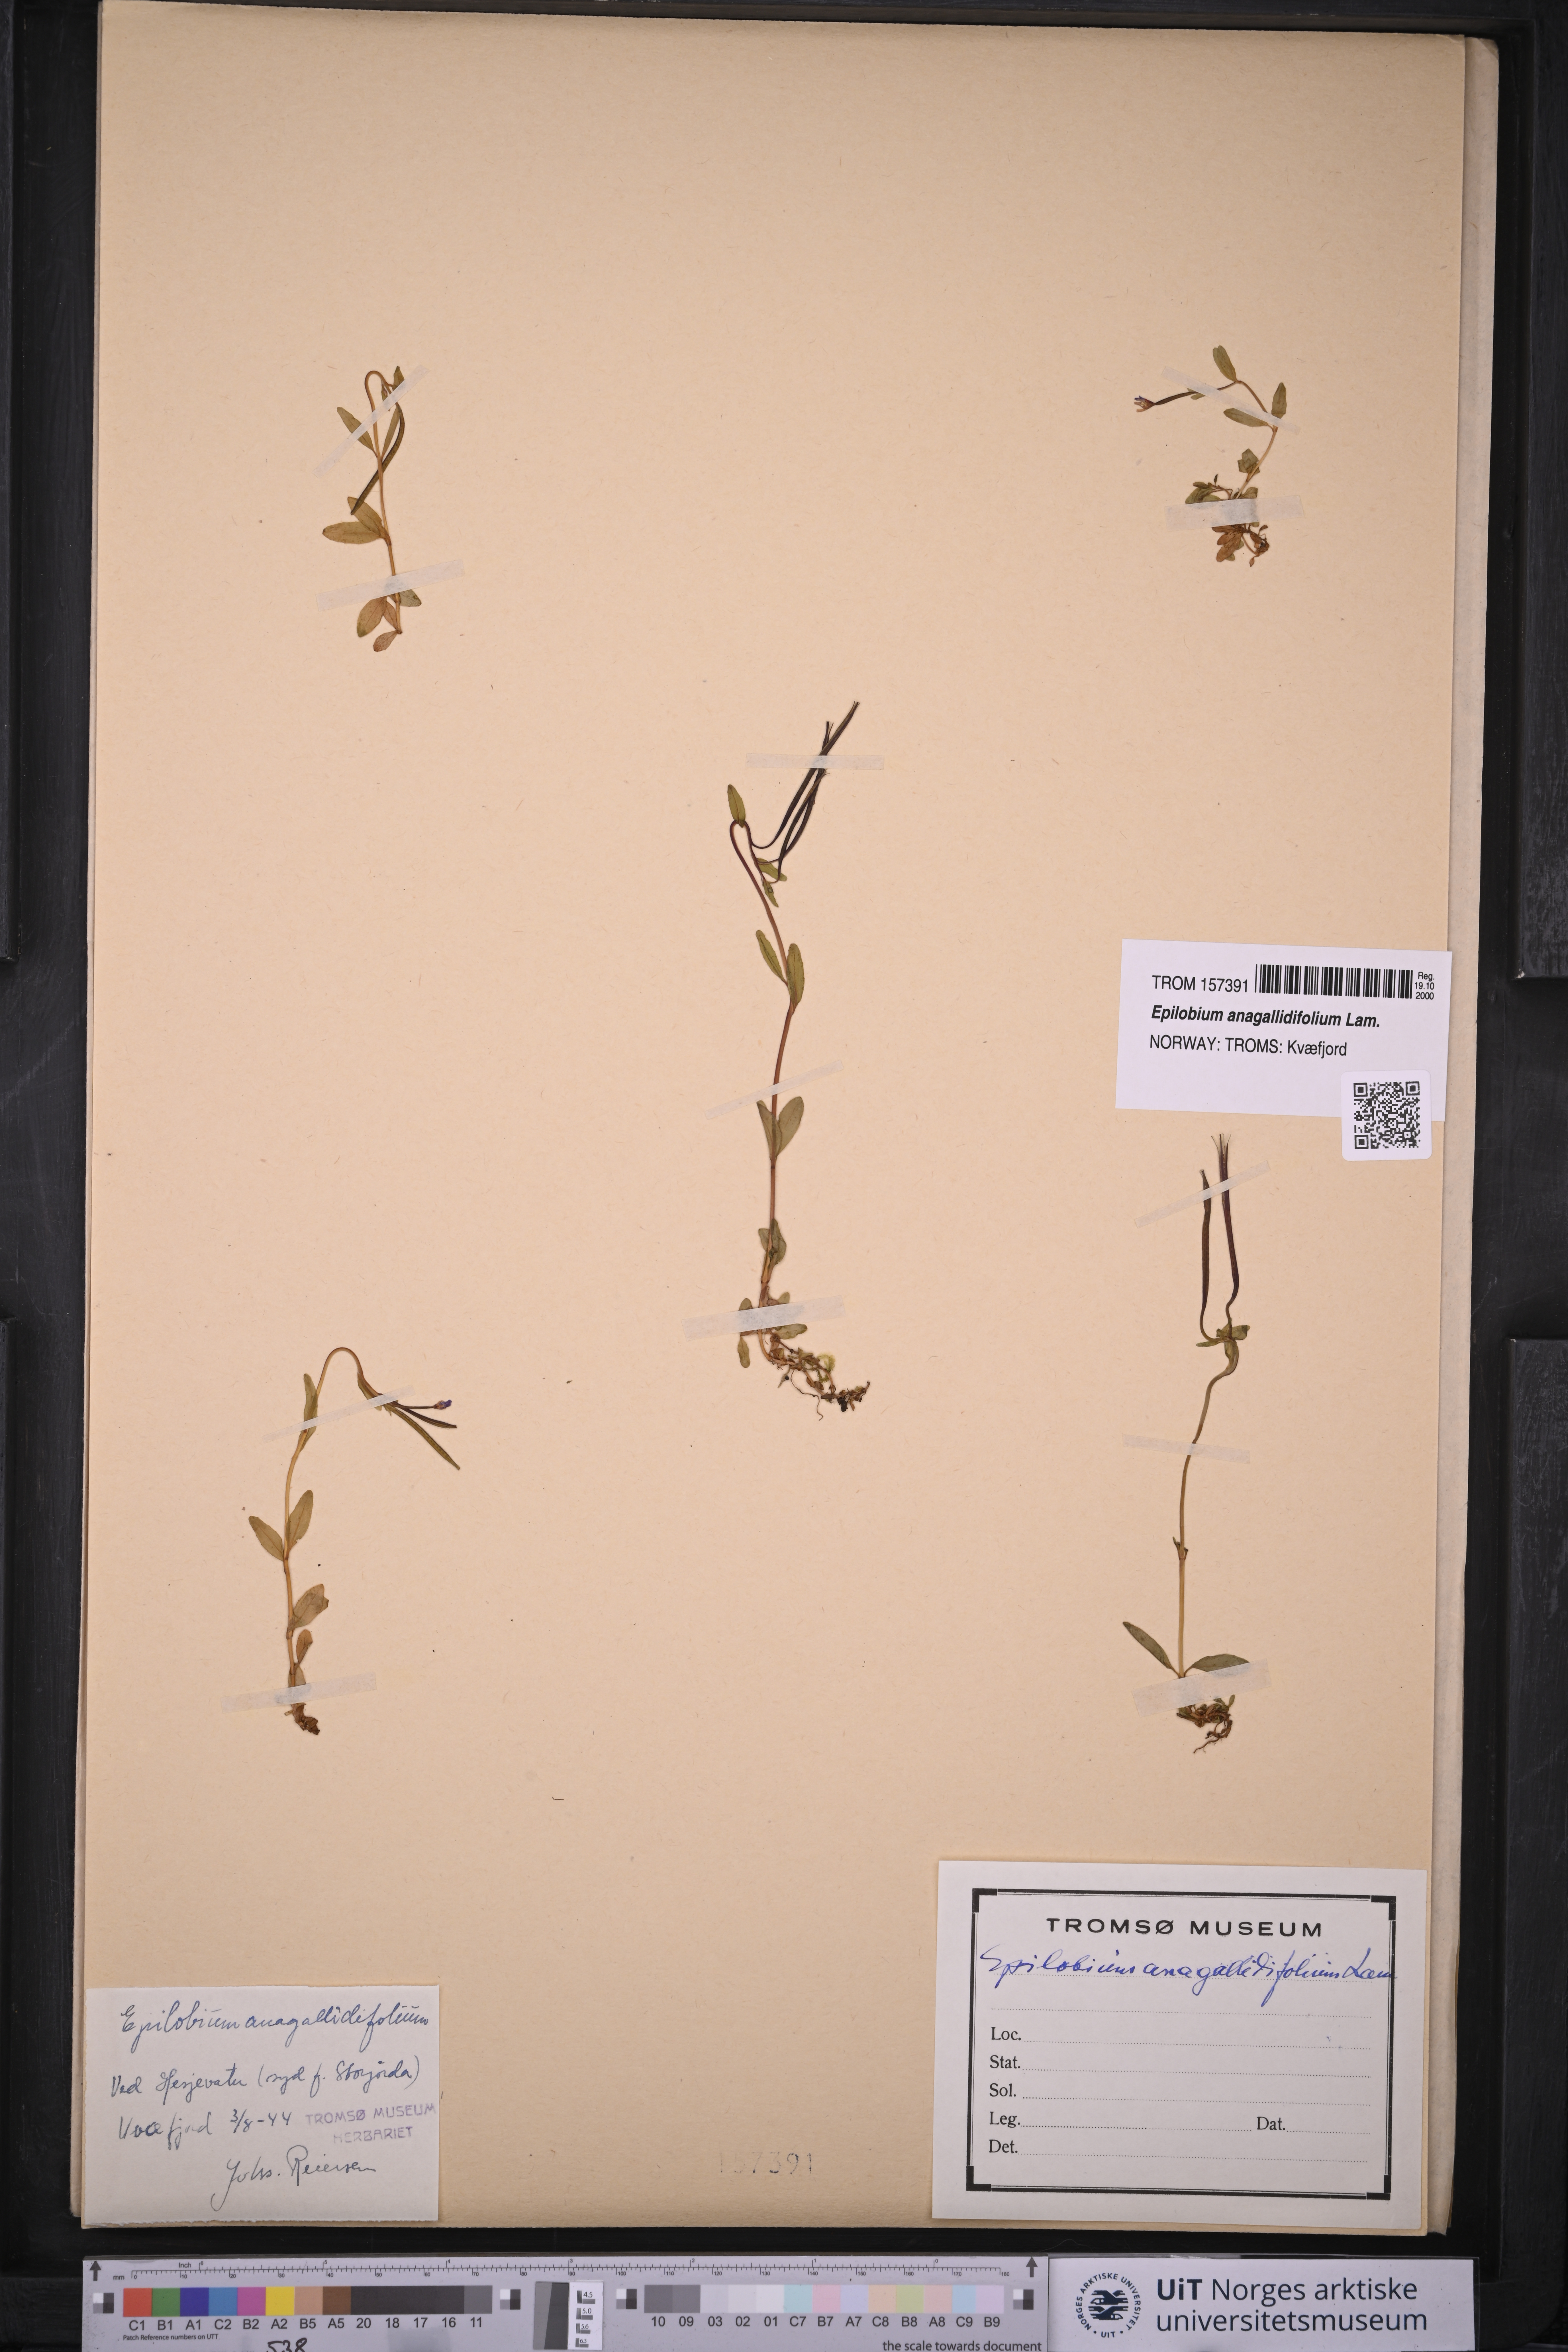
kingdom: Plantae
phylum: Tracheophyta
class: Magnoliopsida
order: Myrtales
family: Onagraceae
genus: Epilobium
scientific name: Epilobium anagallidifolium
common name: Alpine willowherb
